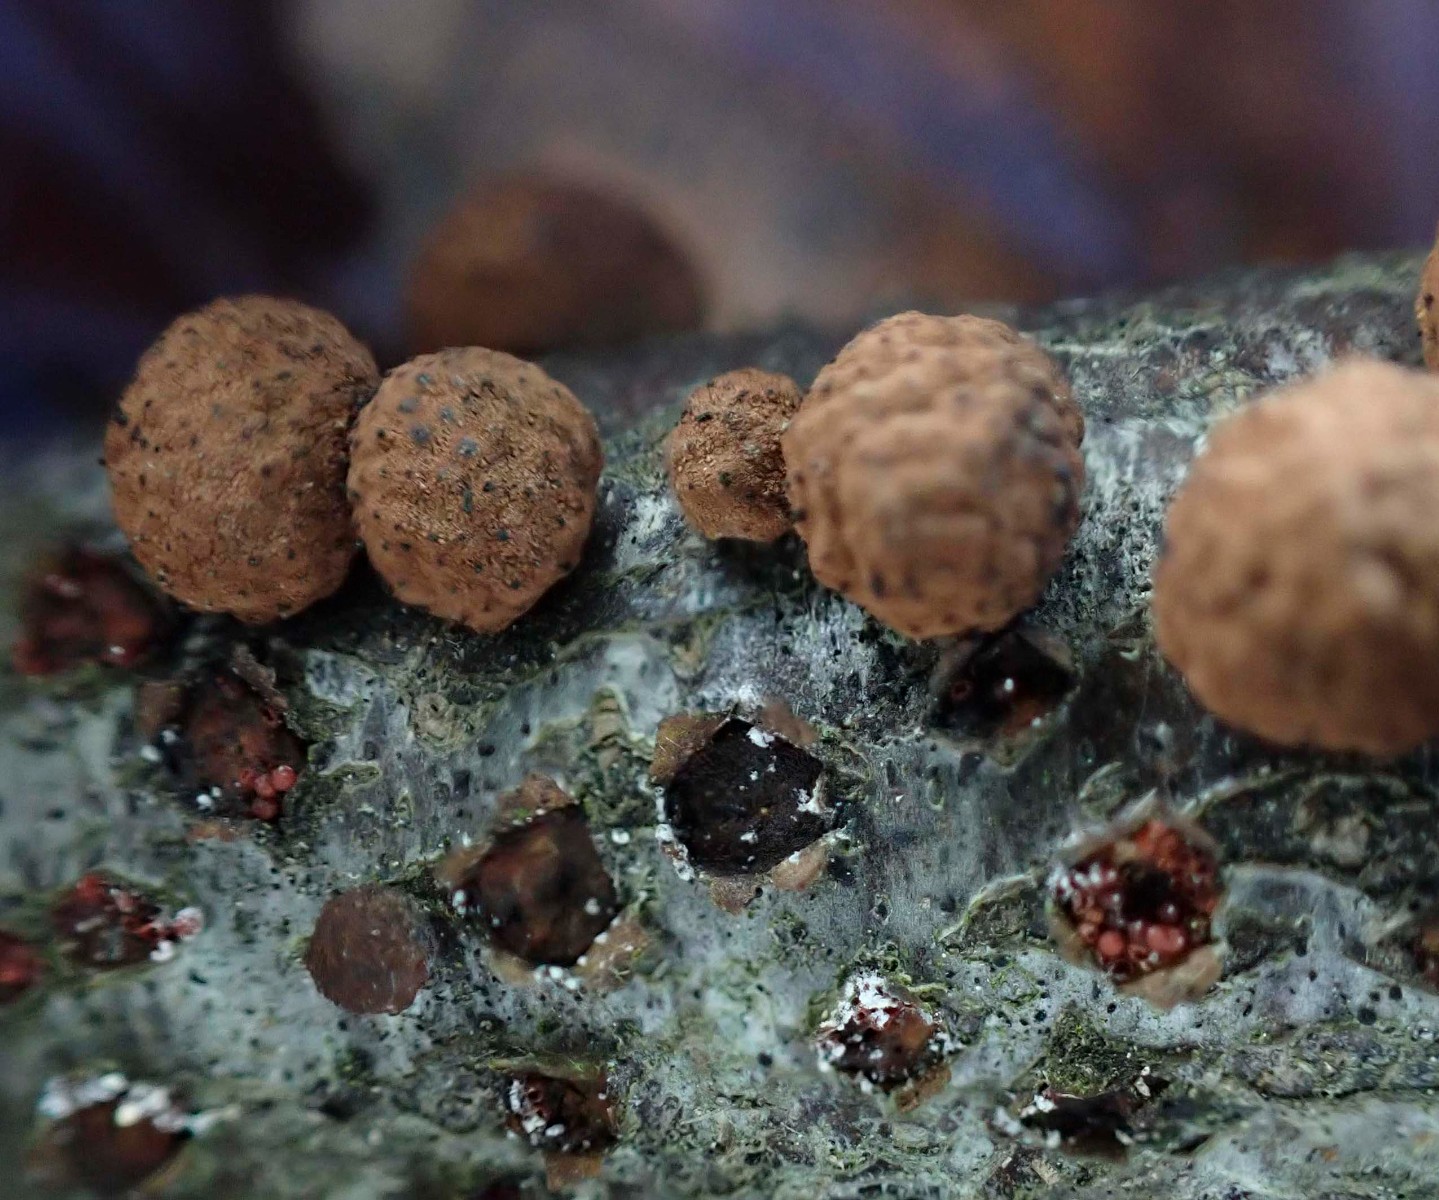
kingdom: Fungi
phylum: Ascomycota
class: Sordariomycetes
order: Hypocreales
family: Nectriaceae
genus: Cosmospora
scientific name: Cosmospora arxii
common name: kuljordbær-cinnobersvamp
